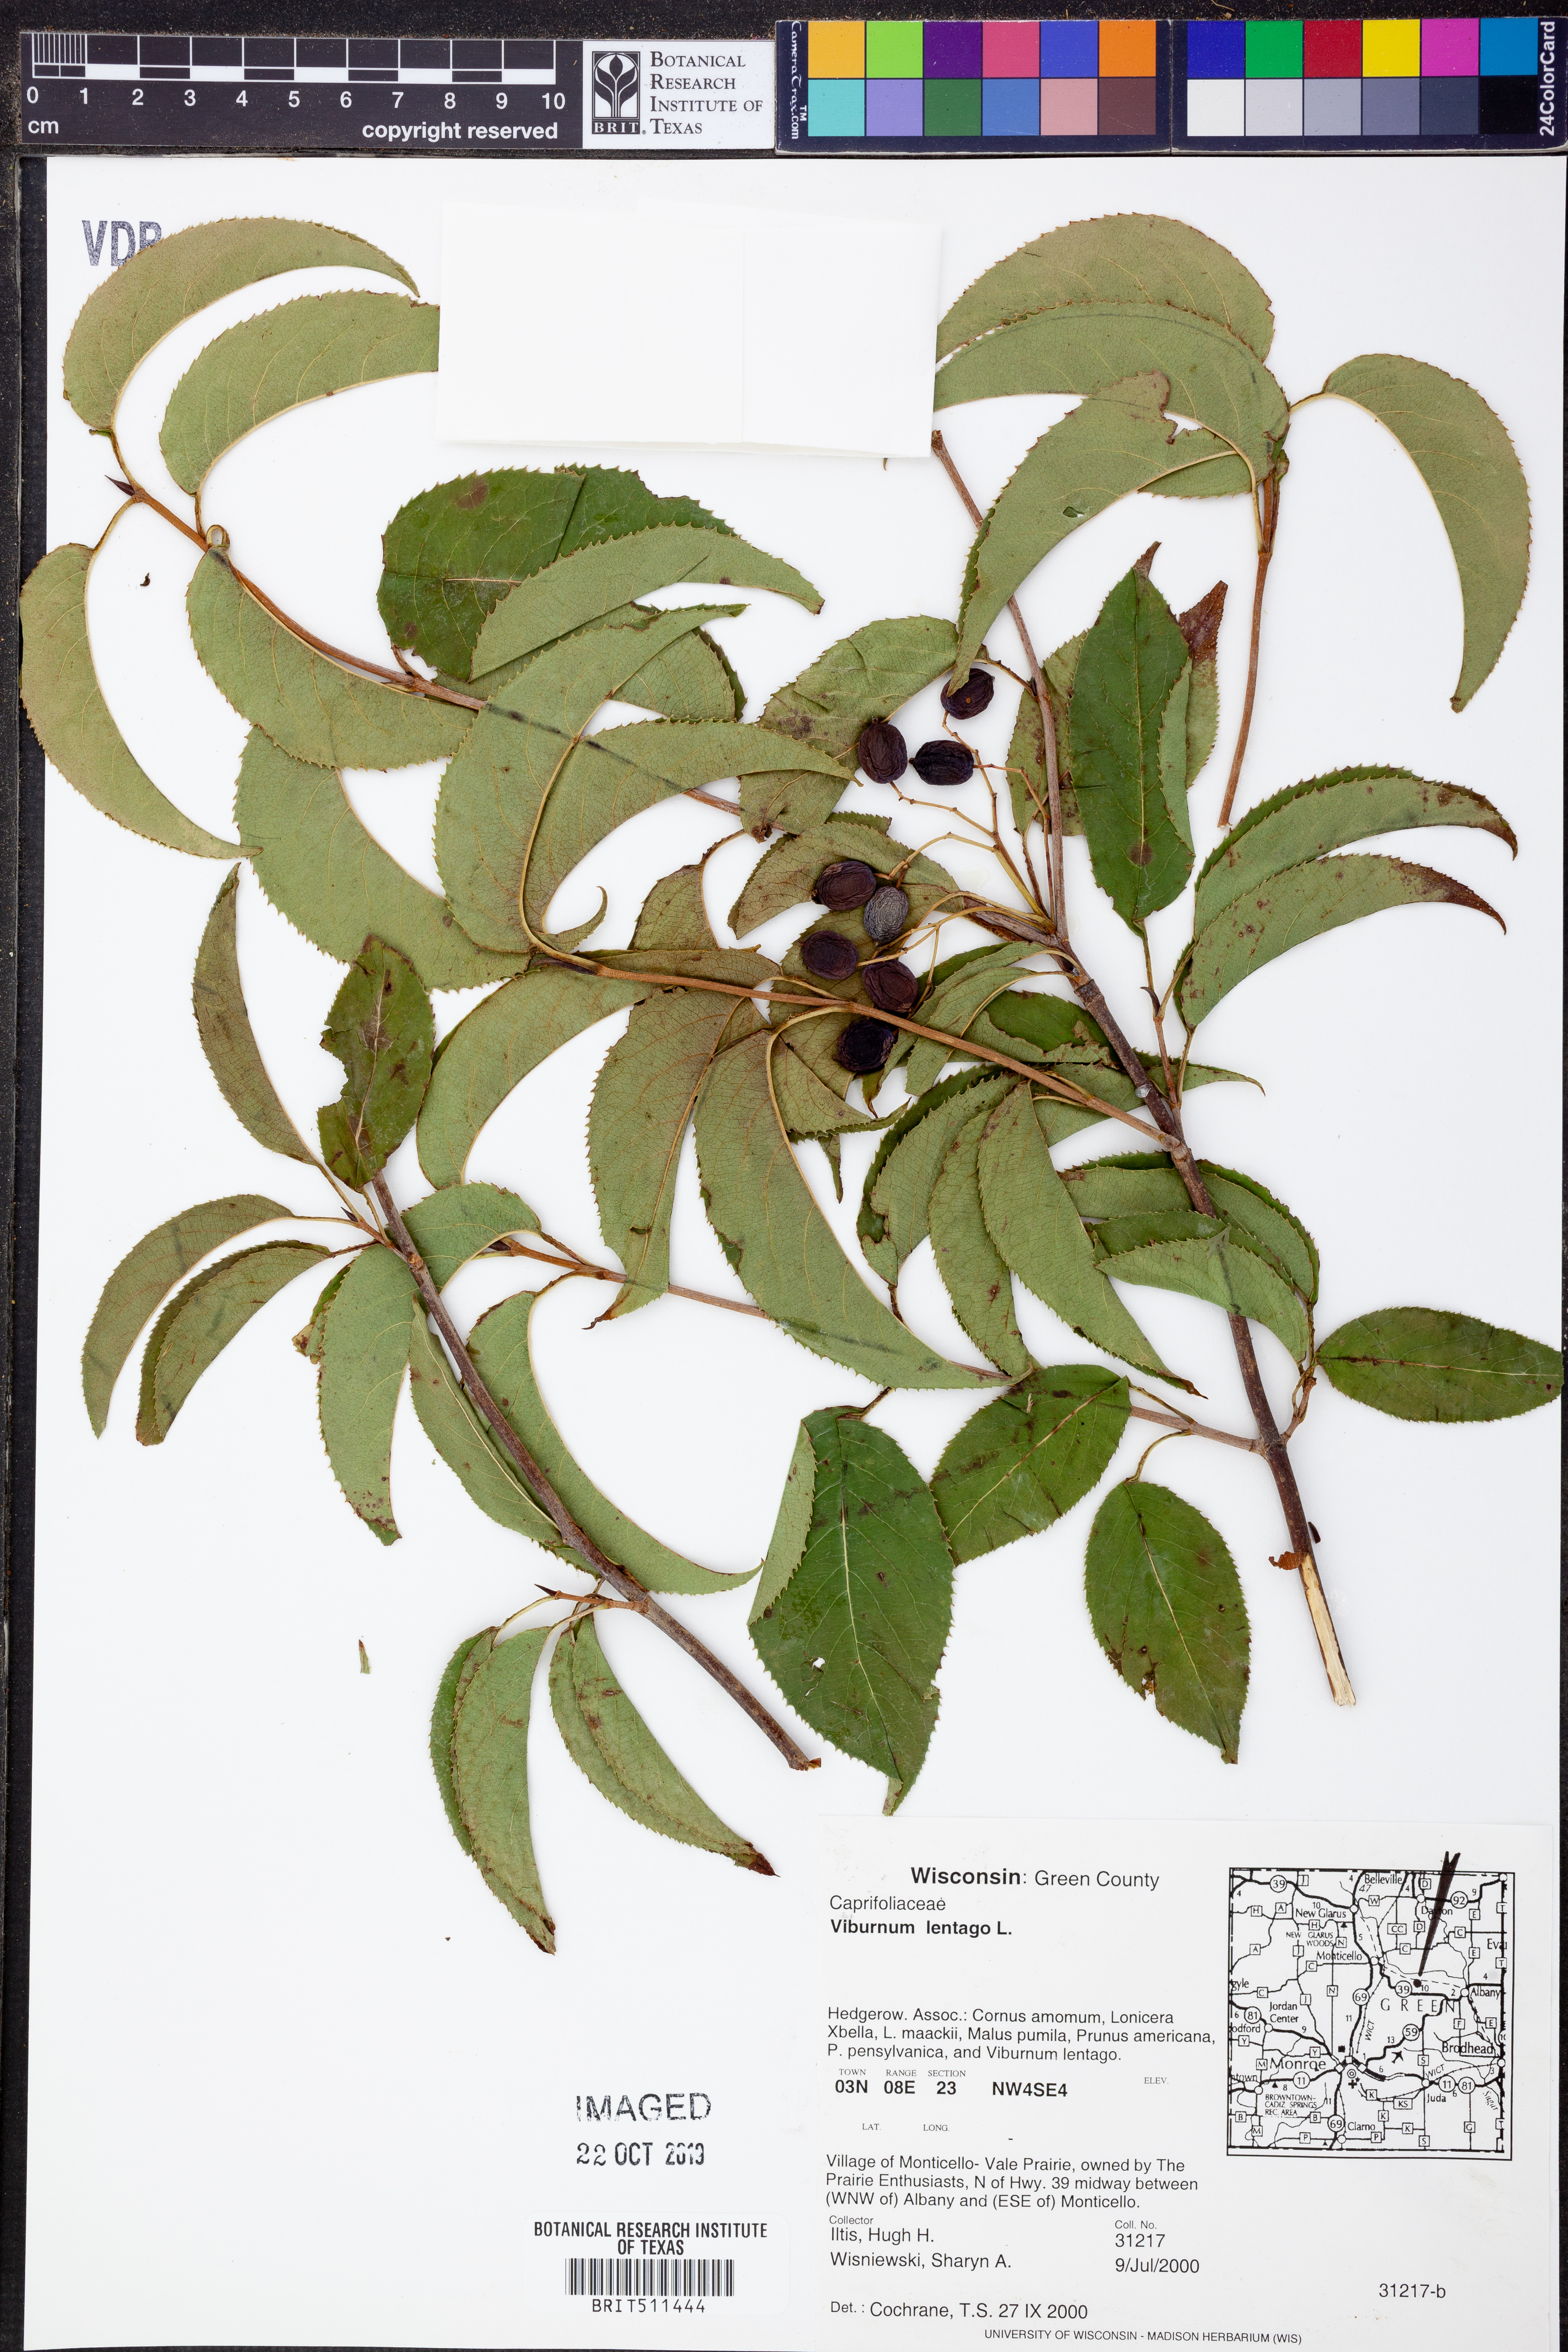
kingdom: Plantae
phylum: Tracheophyta
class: Magnoliopsida
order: Dipsacales
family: Viburnaceae
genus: Viburnum
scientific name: Viburnum lentago
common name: Black haw
